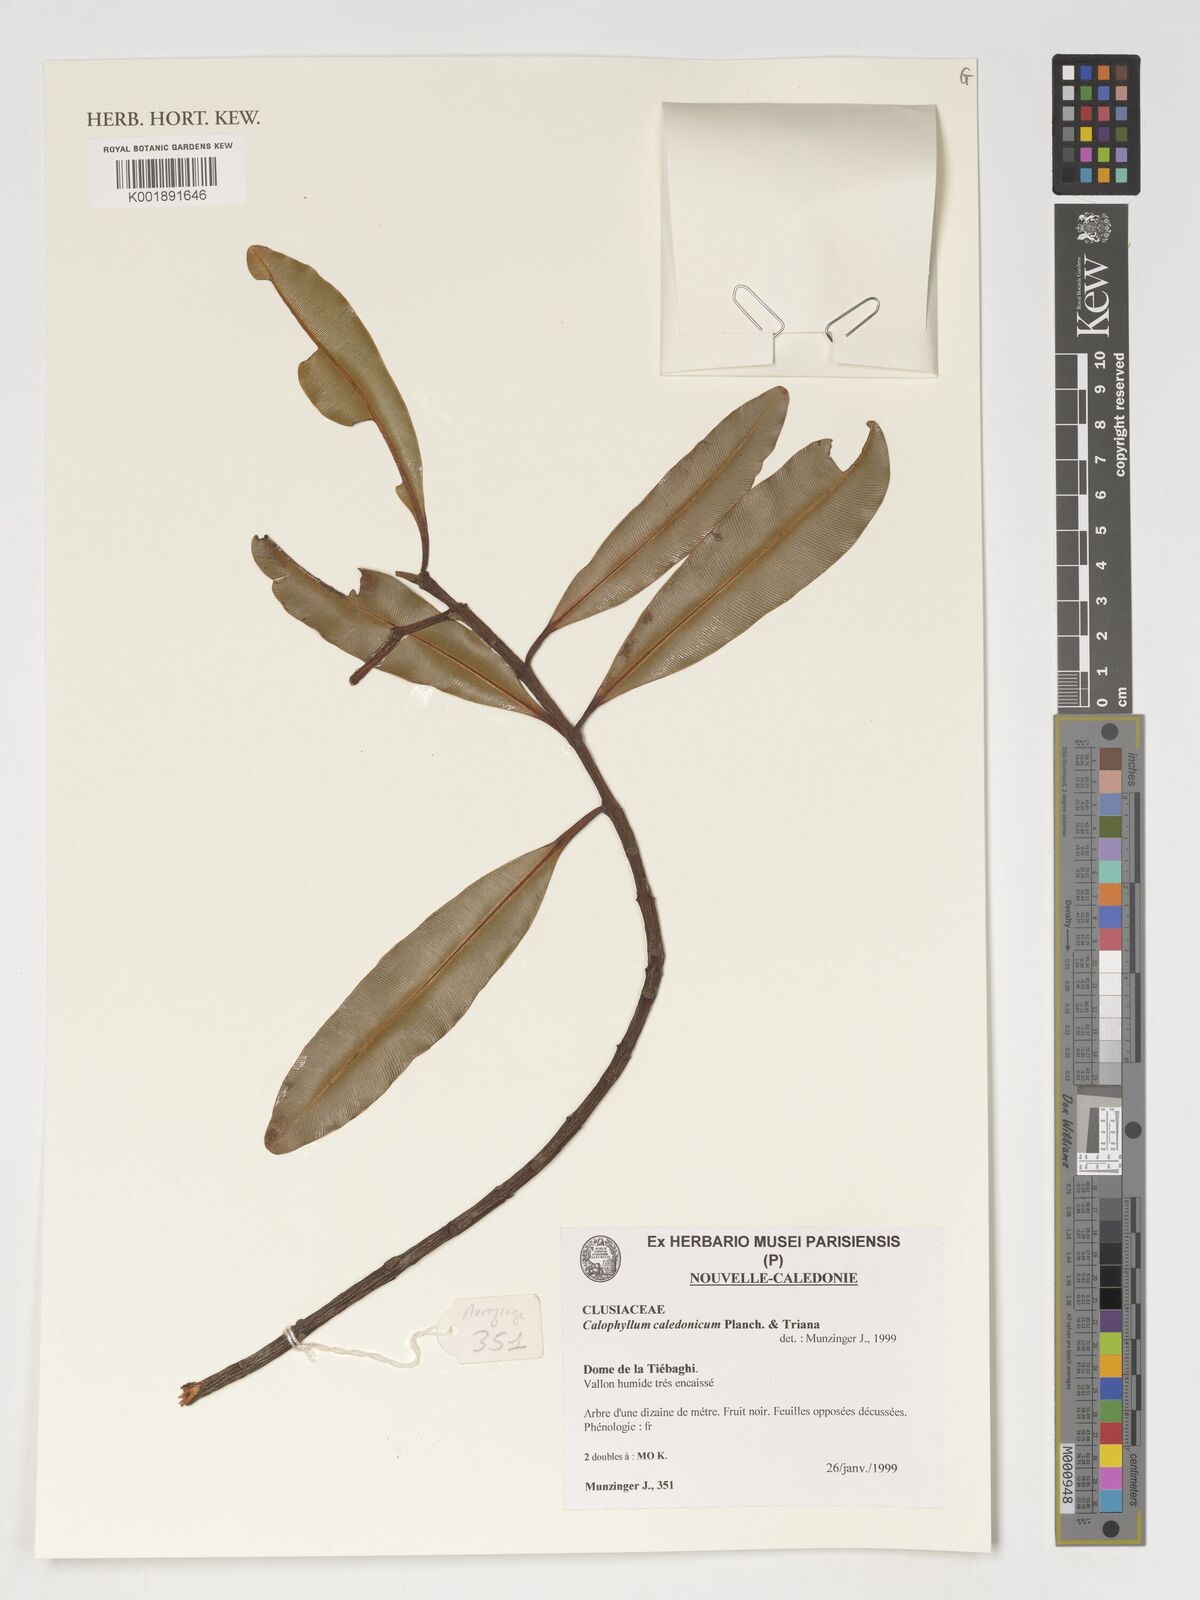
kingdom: Plantae
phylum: Tracheophyta
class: Magnoliopsida
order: Malpighiales
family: Calophyllaceae
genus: Calophyllum
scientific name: Calophyllum caledonicum
